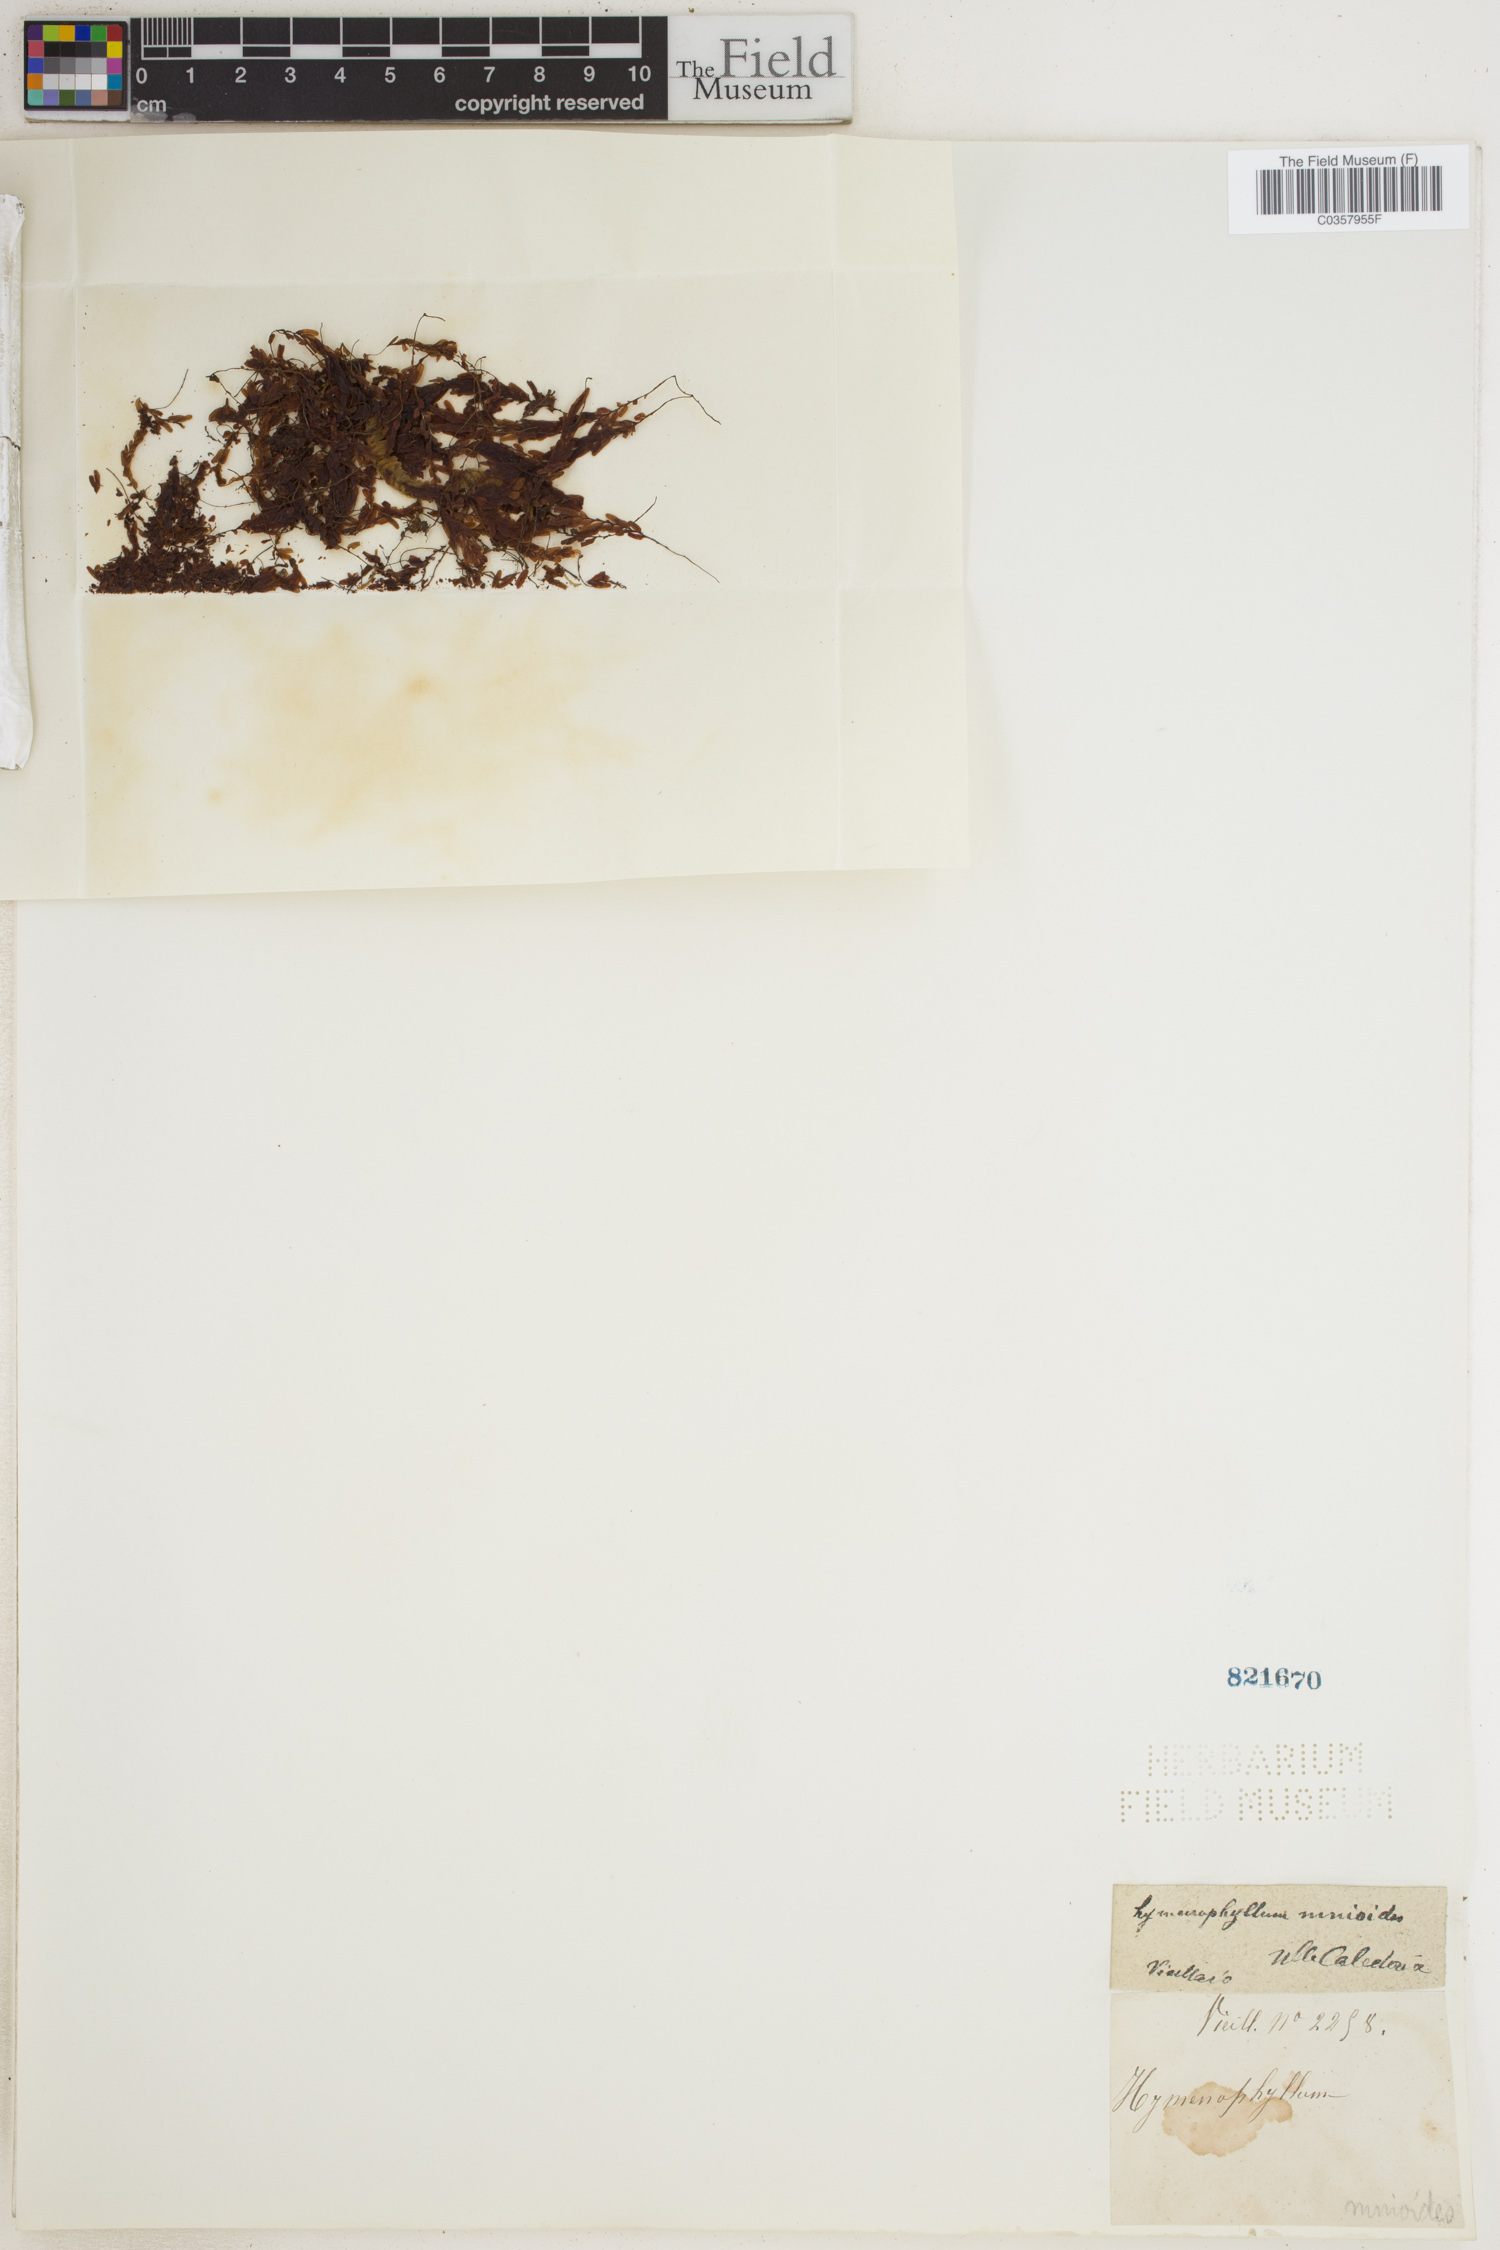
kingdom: Plantae
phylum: Tracheophyta
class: Polypodiopsida
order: Hymenophyllales
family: Hymenophyllaceae
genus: Hymenophyllum
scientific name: Hymenophyllum mnioides
